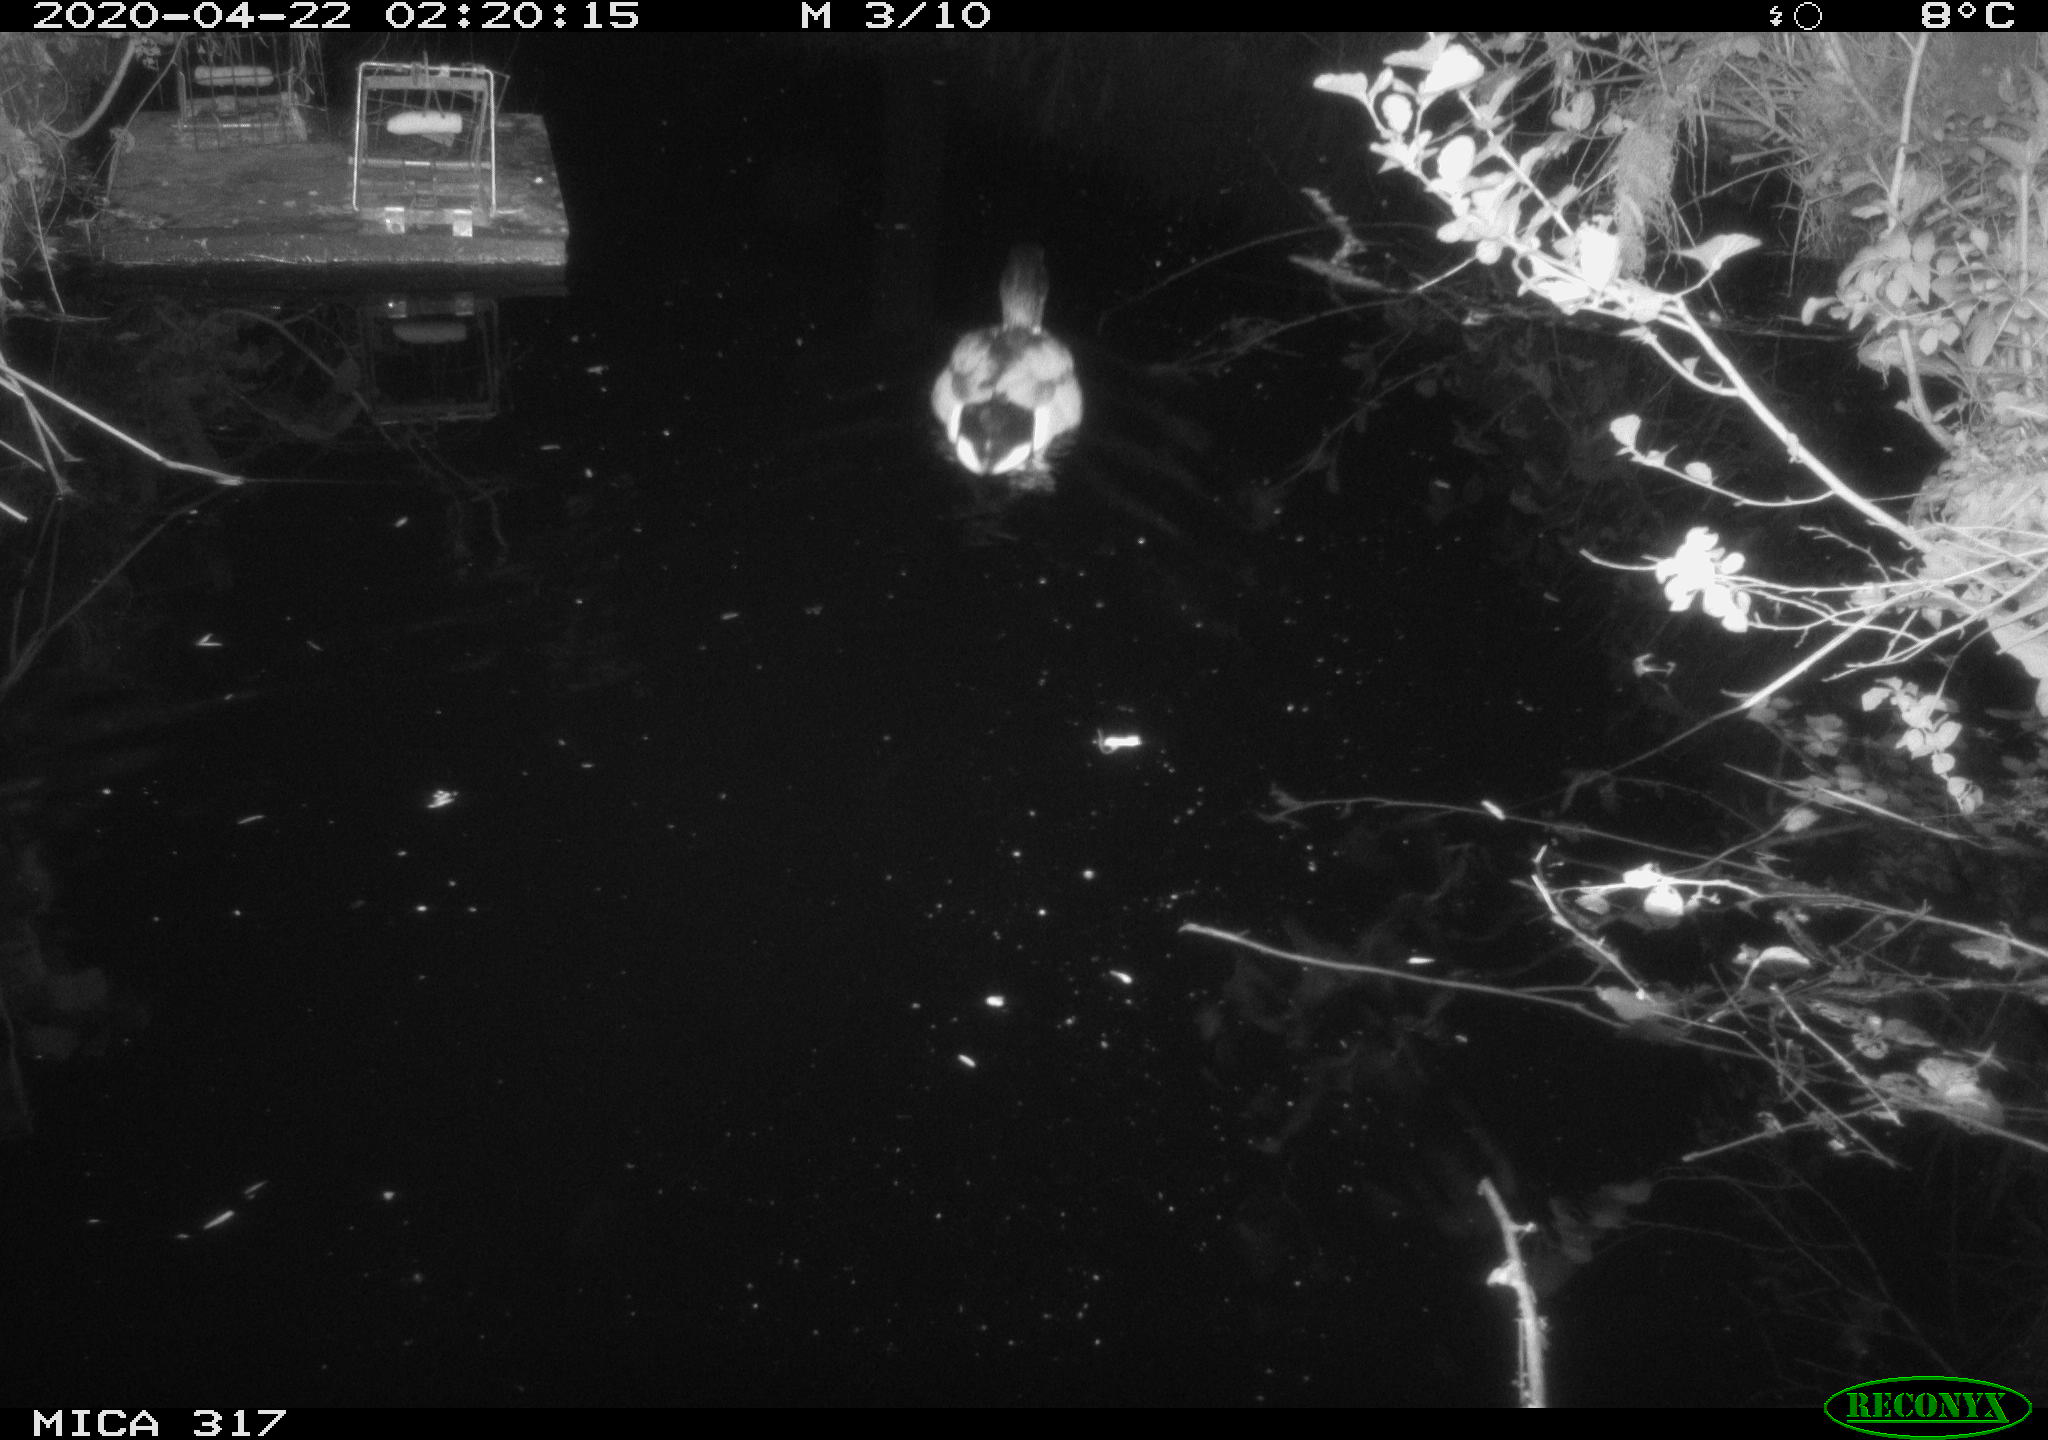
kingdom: Animalia
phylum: Chordata
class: Aves
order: Anseriformes
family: Anatidae
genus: Anas
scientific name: Anas platyrhynchos
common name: Mallard
